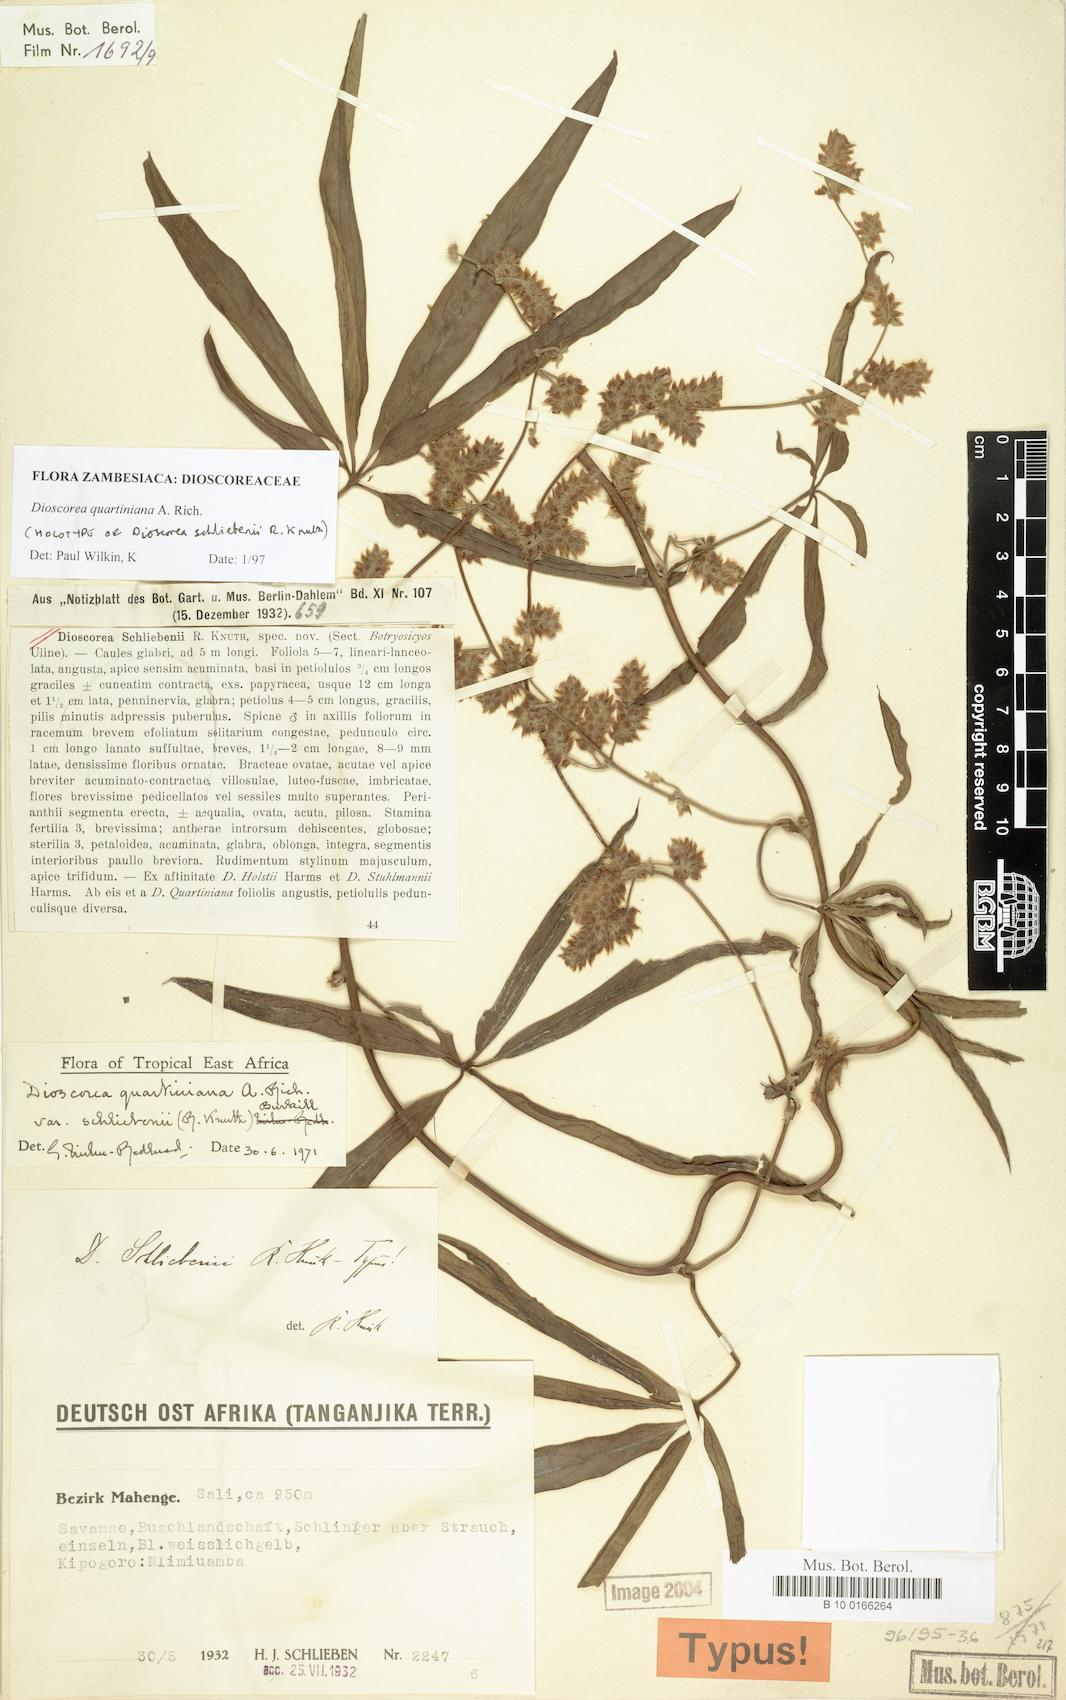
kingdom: Plantae
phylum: Tracheophyta
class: Liliopsida
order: Dioscoreales
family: Dioscoreaceae
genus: Dioscorea
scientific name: Dioscorea quartiniana
